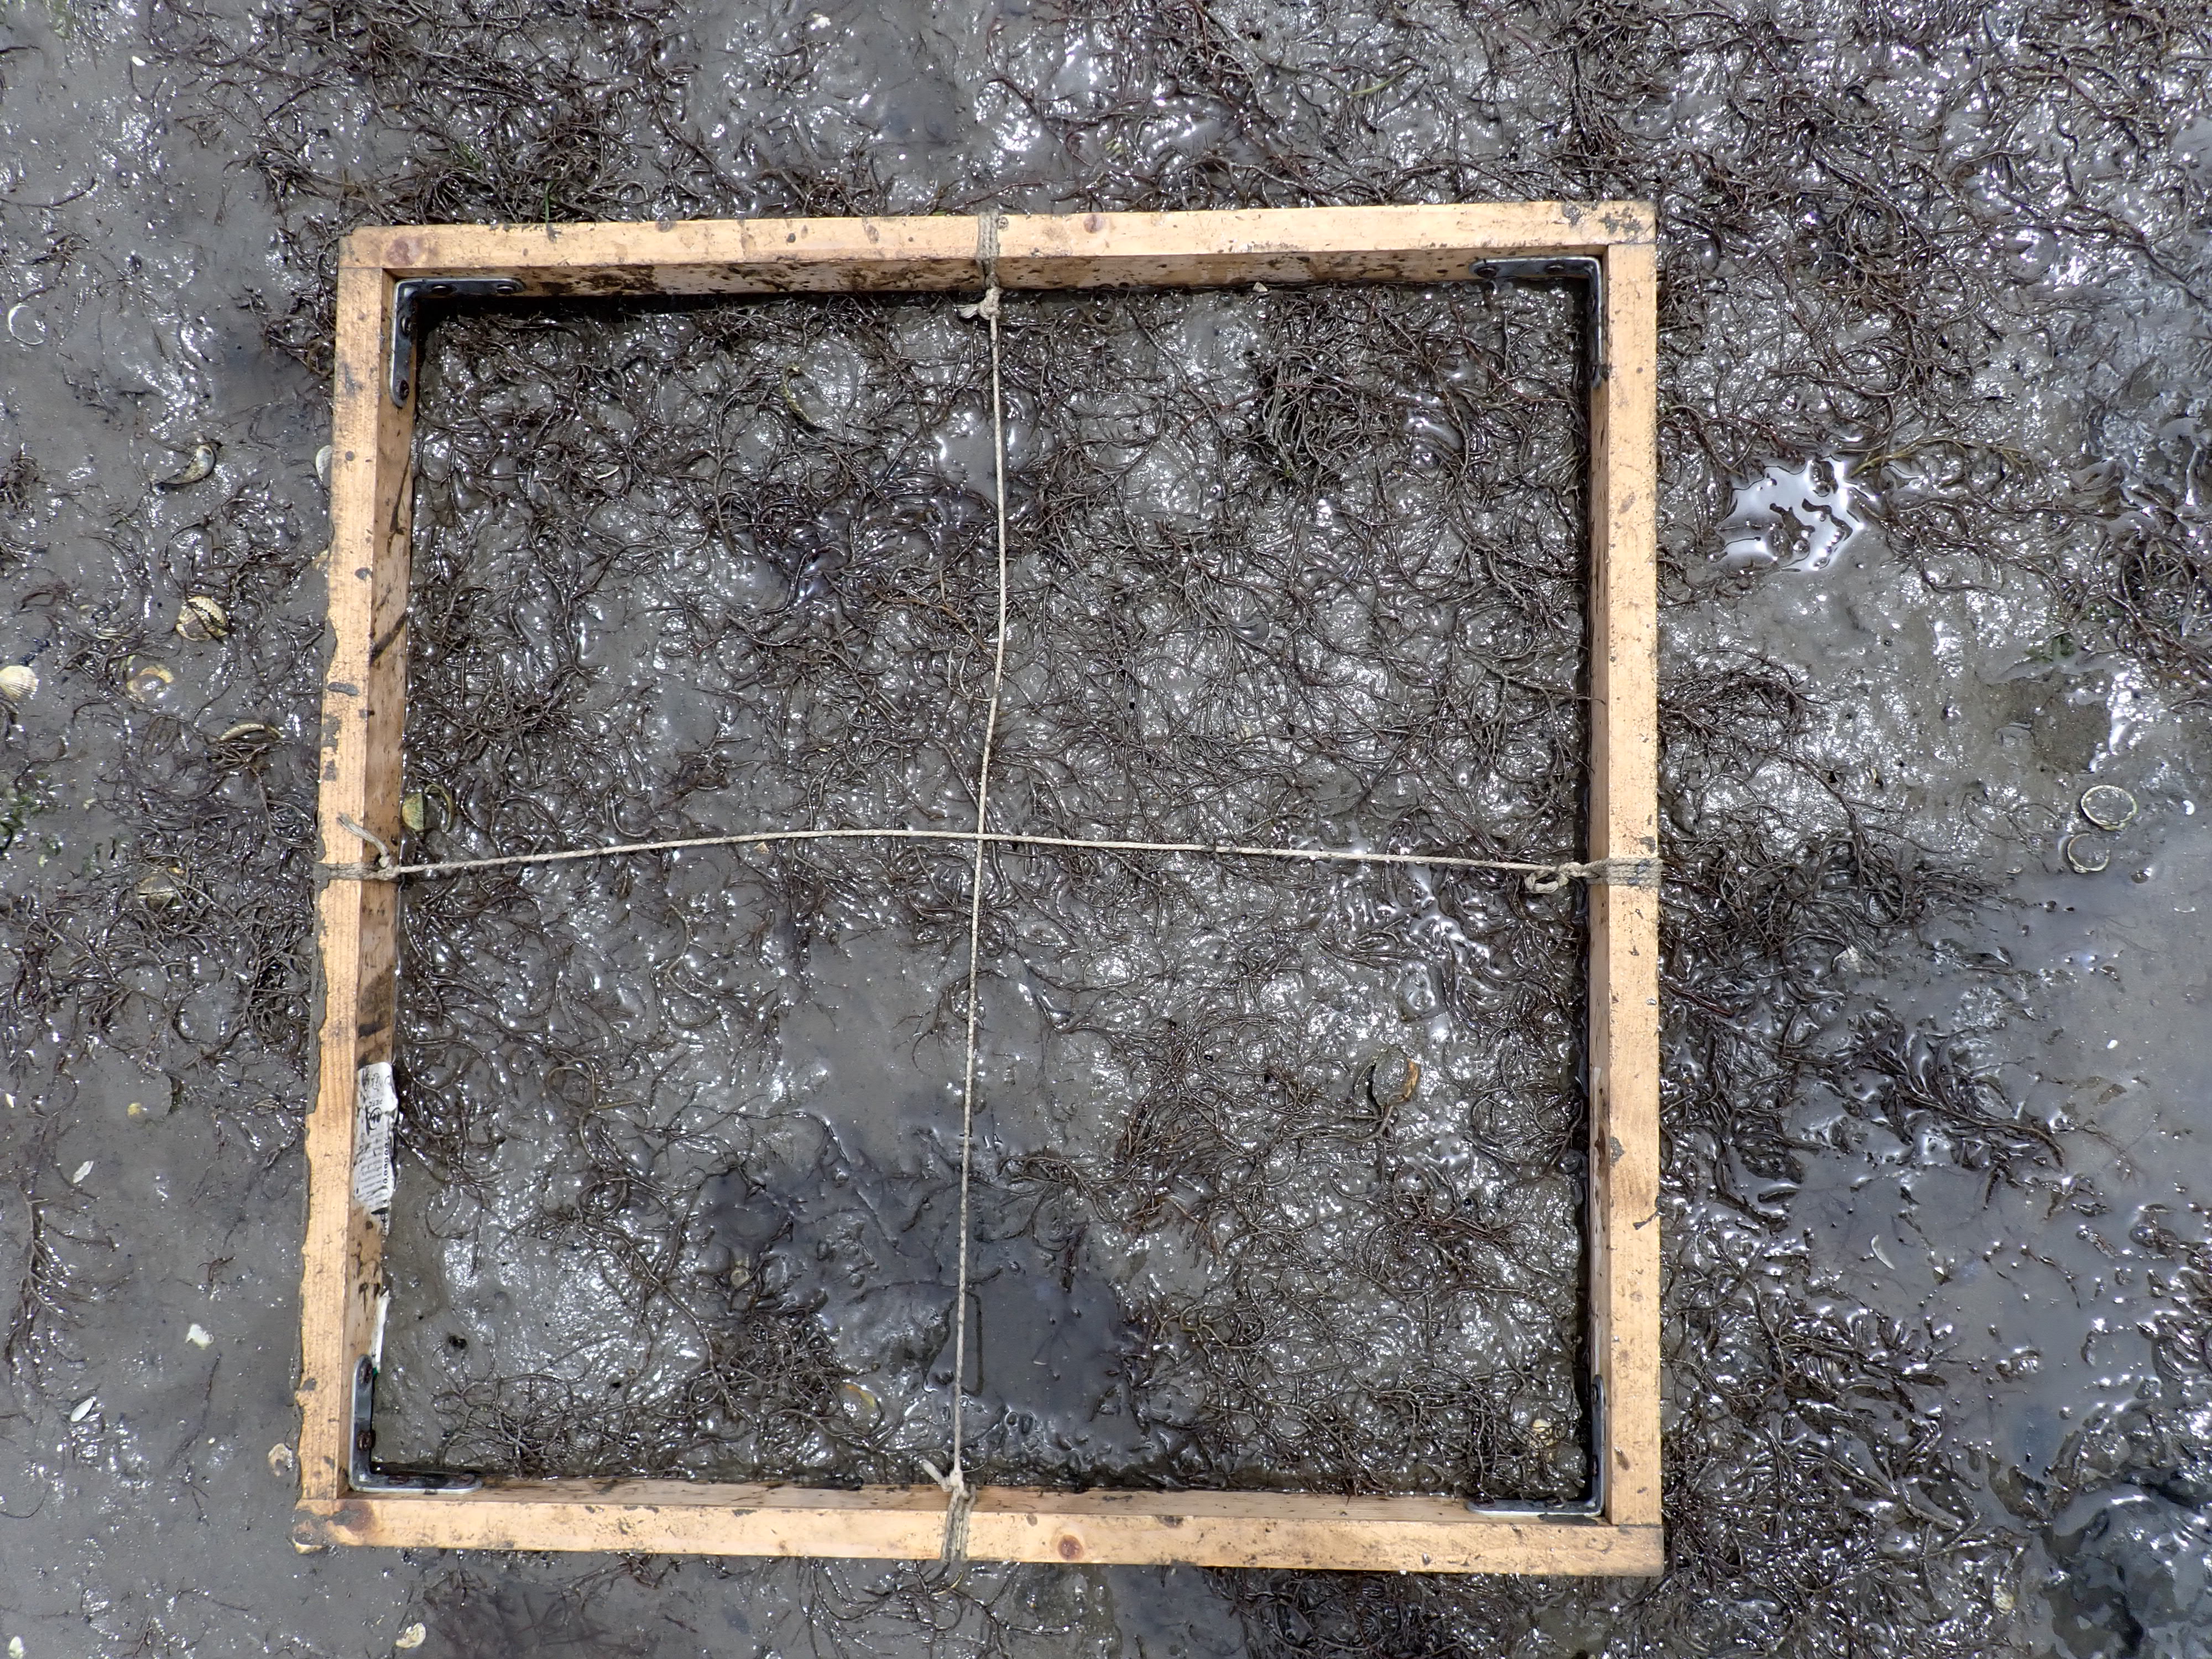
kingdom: Plantae
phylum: Rhodophyta
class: Florideophyceae
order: Gracilariales
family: Gracilariaceae
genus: Gracilaria
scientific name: Gracilaria vermiculophylla
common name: Algae
